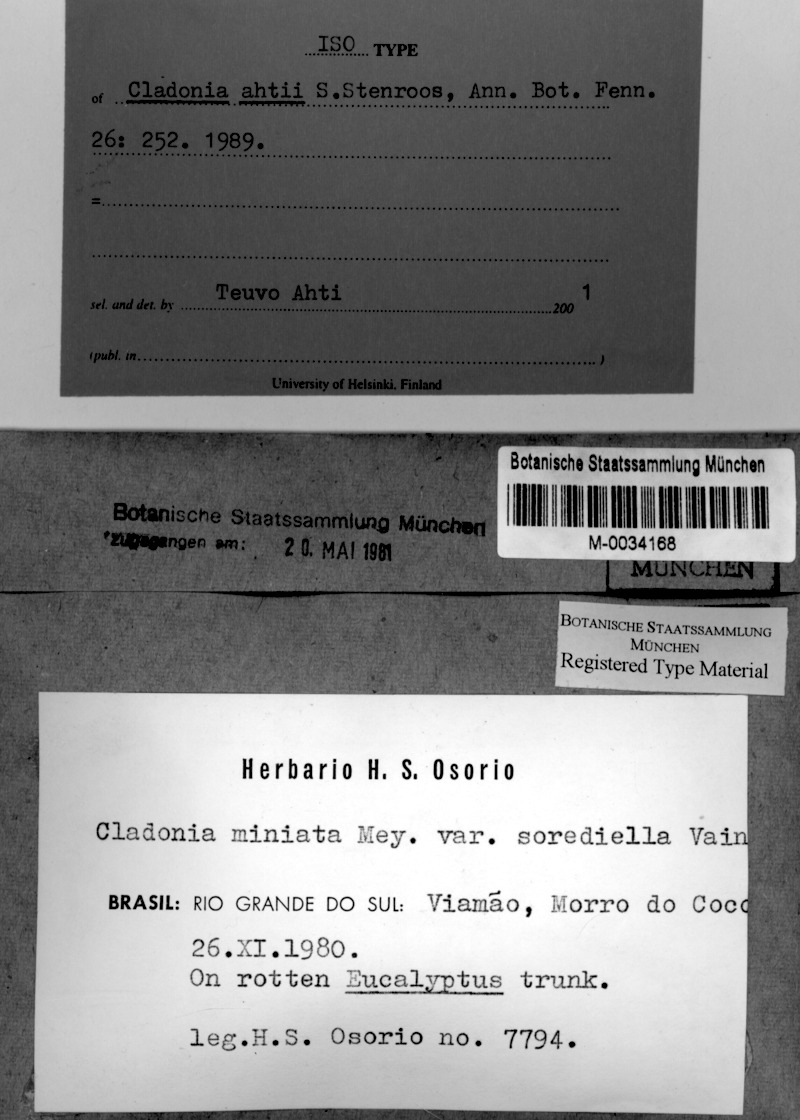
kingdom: Fungi
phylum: Ascomycota
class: Lecanoromycetes
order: Lecanorales
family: Cladoniaceae
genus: Cladonia
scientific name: Cladonia ahtii
